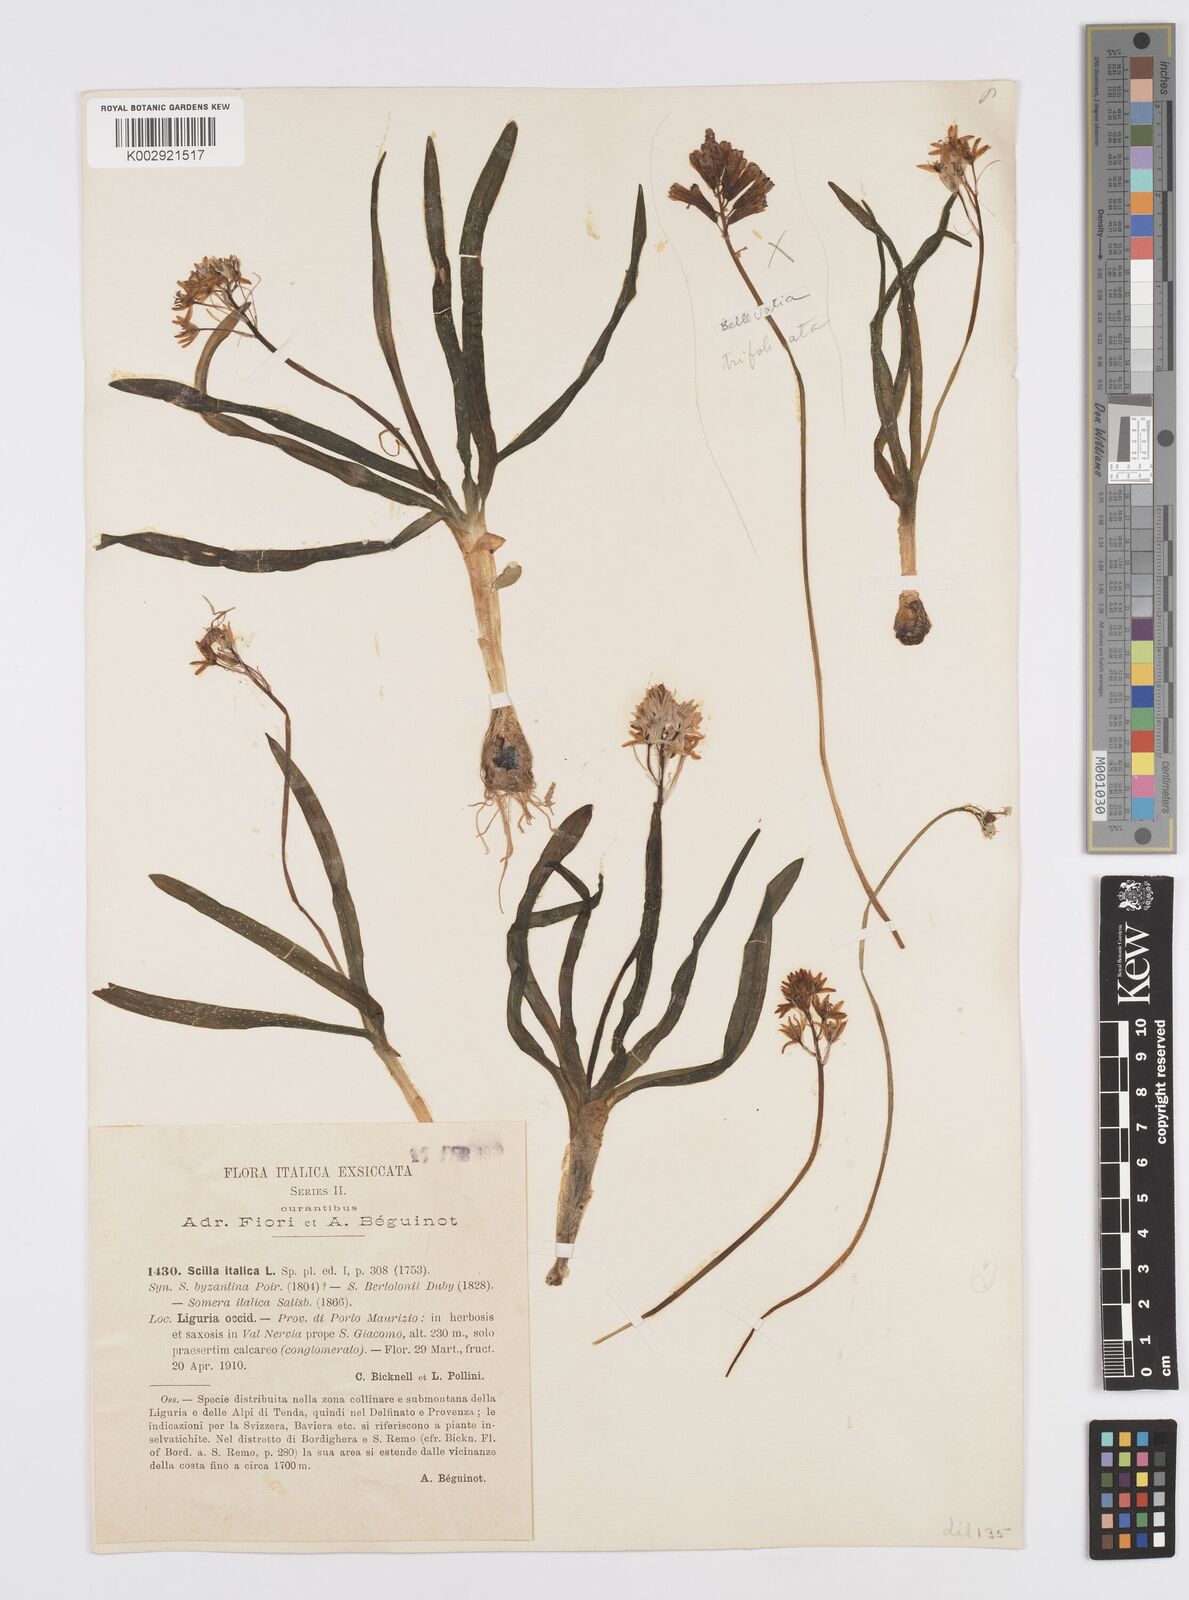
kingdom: Plantae
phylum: Tracheophyta
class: Liliopsida
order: Asparagales
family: Asparagaceae
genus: Hyacinthoides
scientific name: Hyacinthoides italica
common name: Italian bluebell
